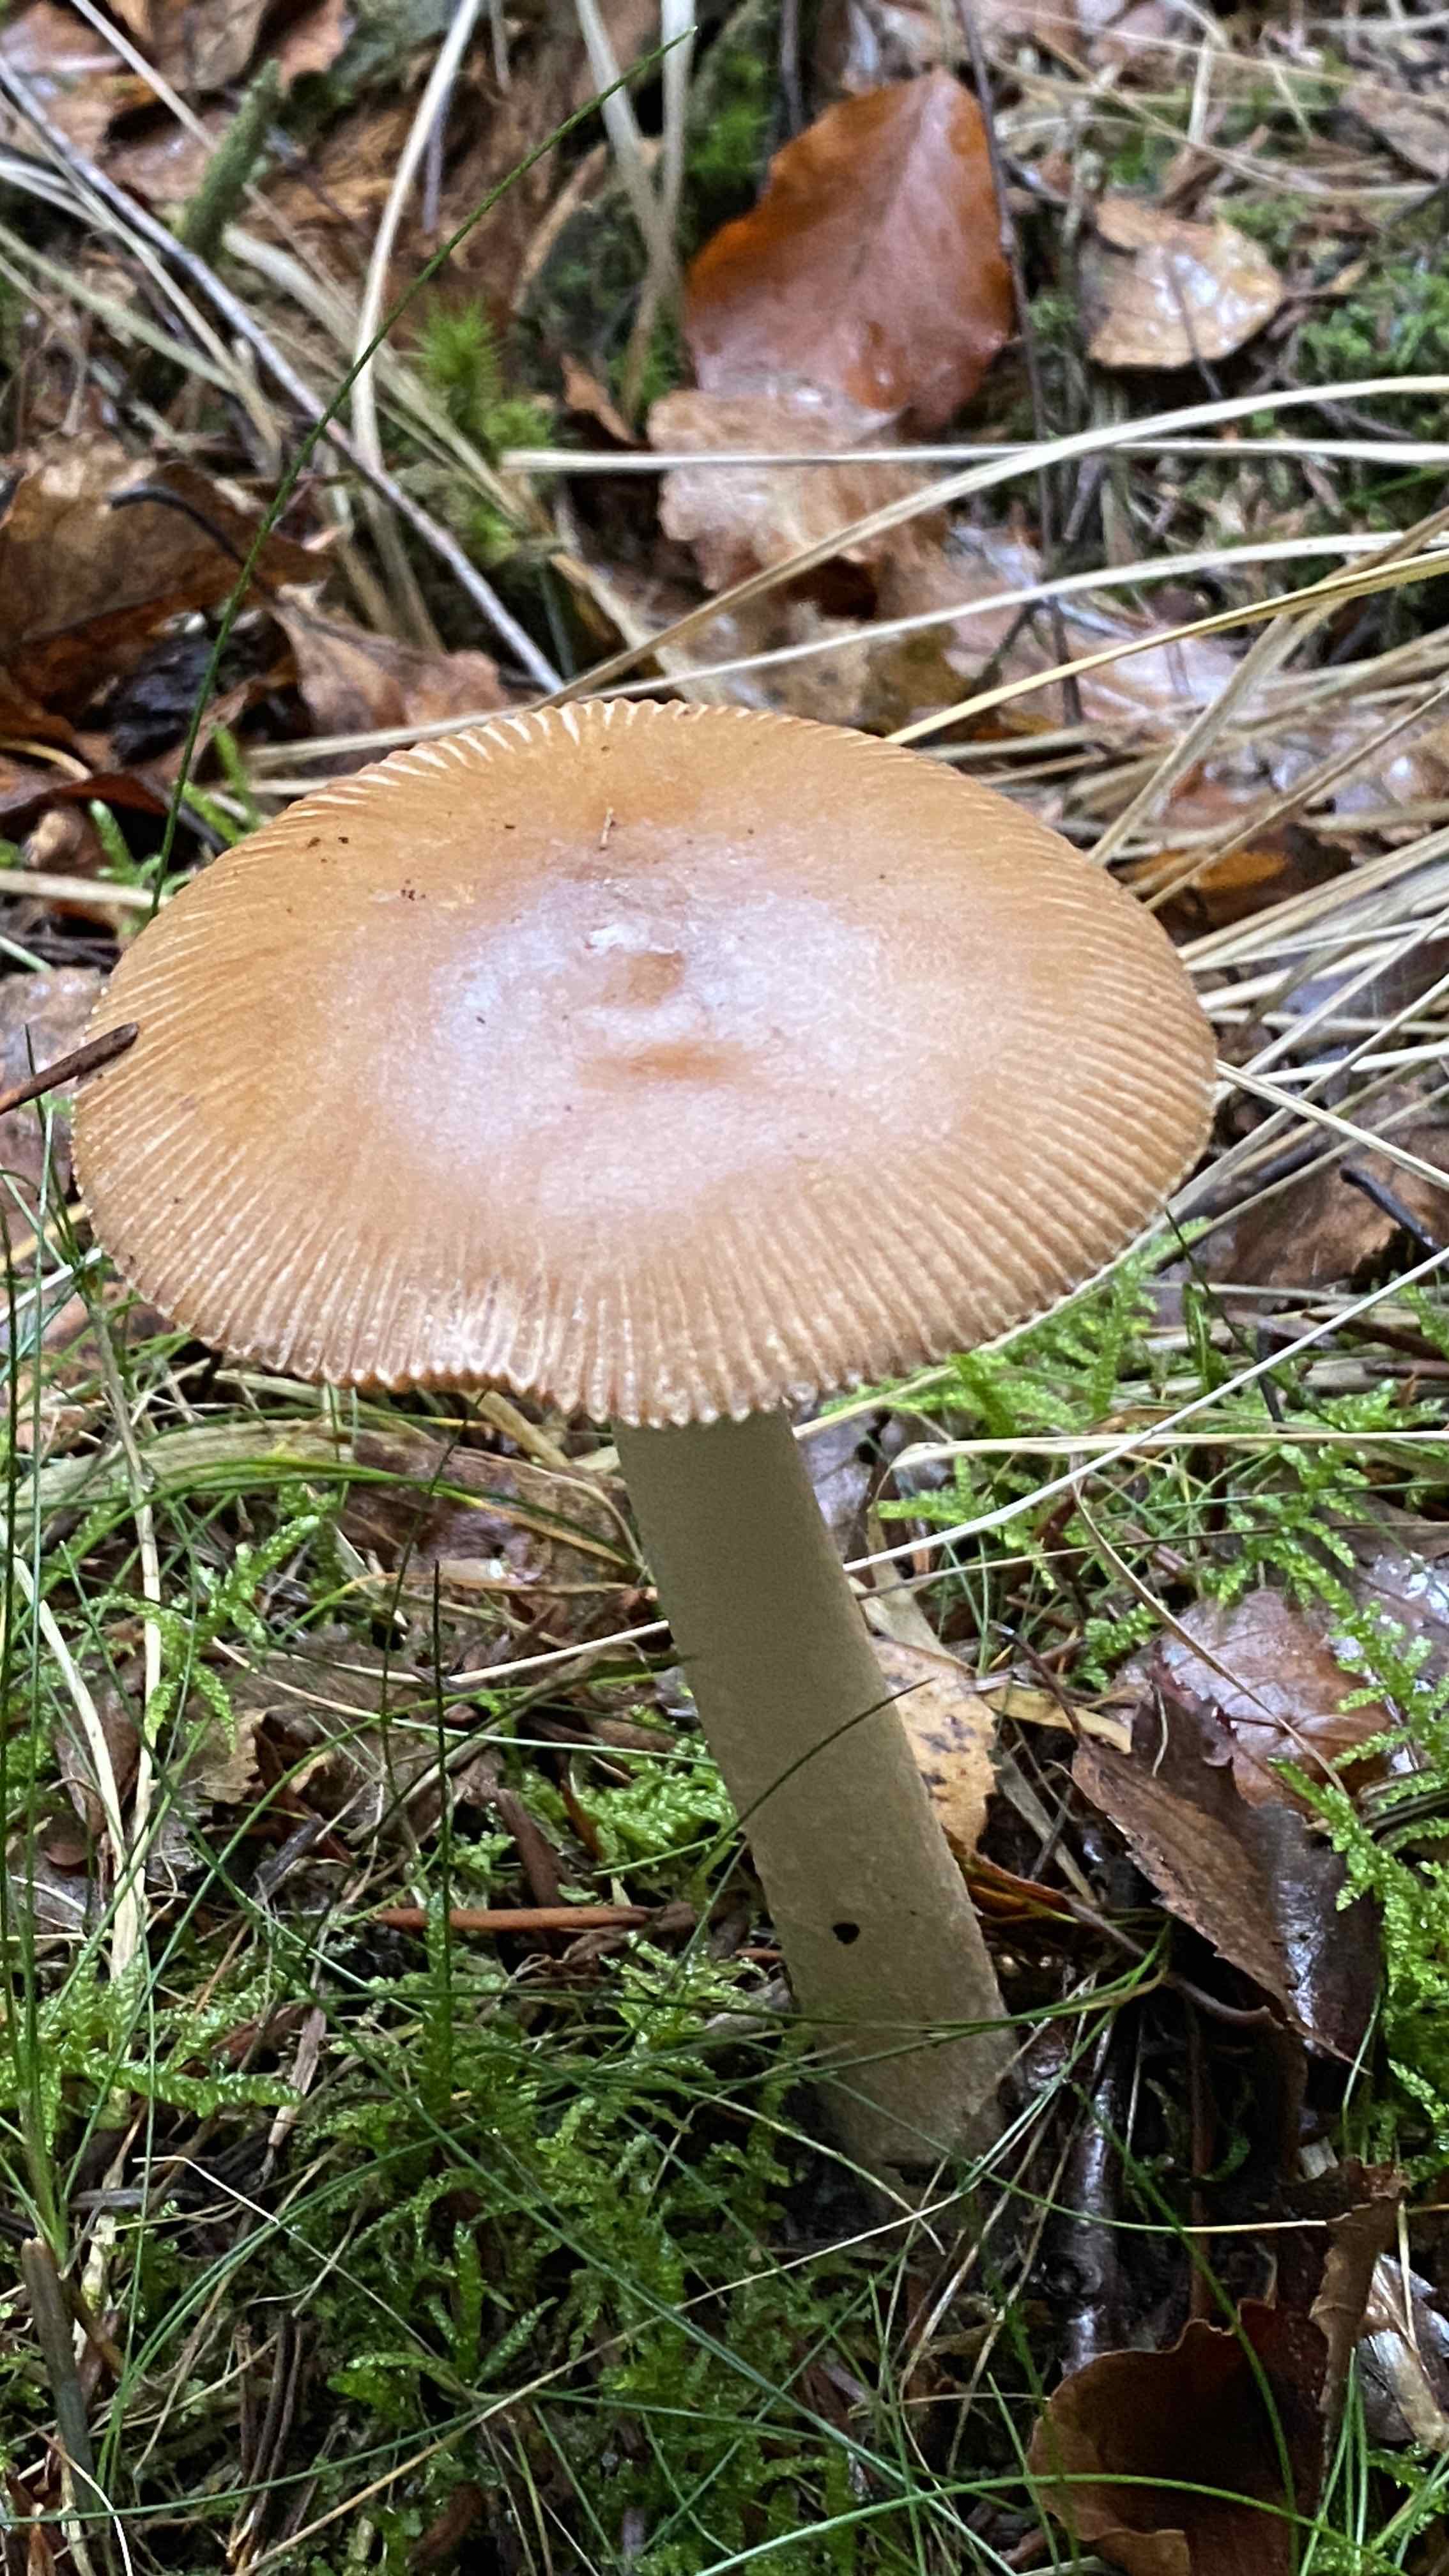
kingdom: Fungi
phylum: Basidiomycota
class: Agaricomycetes
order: Agaricales
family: Amanitaceae
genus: Amanita
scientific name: Amanita fulva
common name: brun kam-fluesvamp
